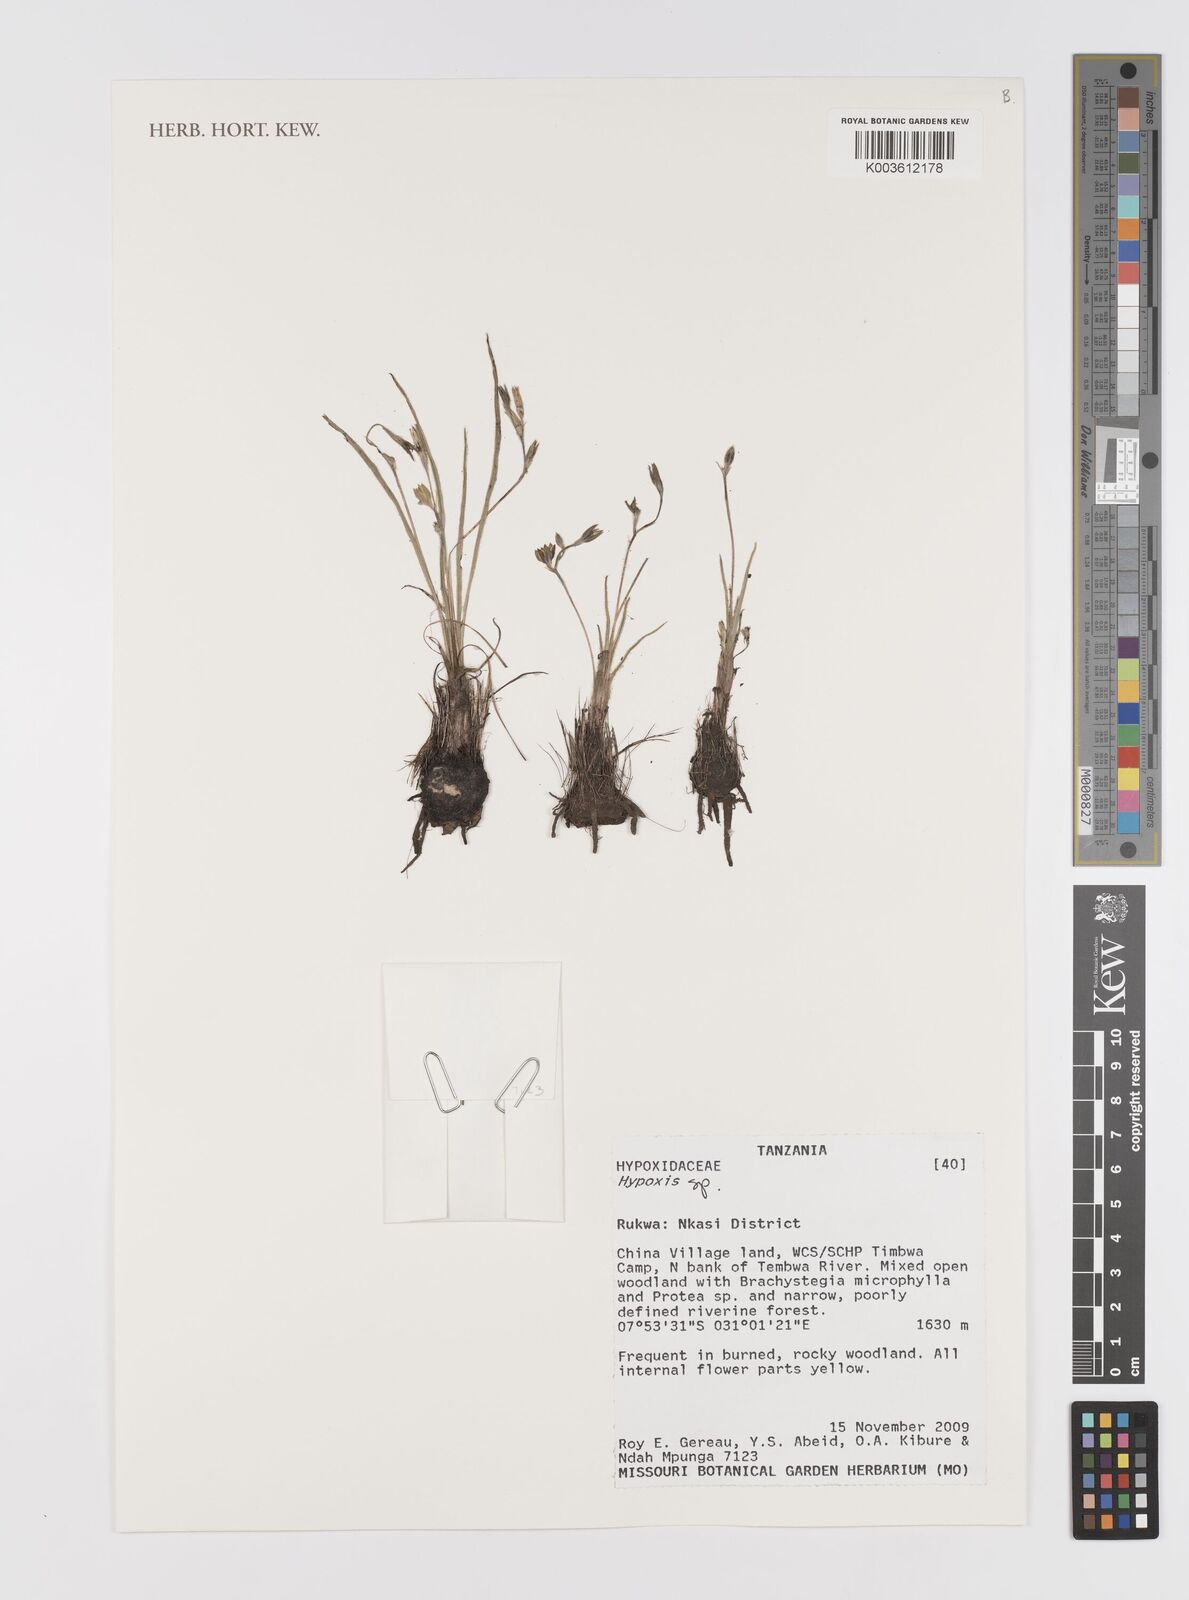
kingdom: Plantae
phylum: Tracheophyta
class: Liliopsida
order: Asparagales
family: Hypoxidaceae
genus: Hypoxis
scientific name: Hypoxis
